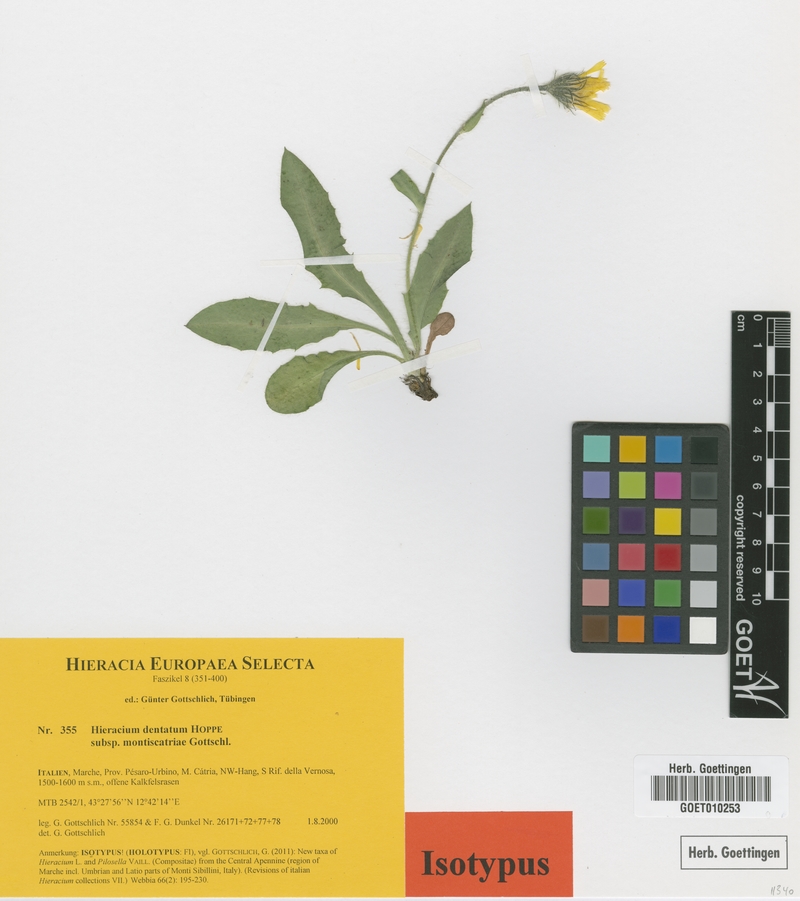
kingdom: Plantae
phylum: Tracheophyta
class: Magnoliopsida
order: Asterales
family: Asteraceae
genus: Hieracium
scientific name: Hieracium dentatum
